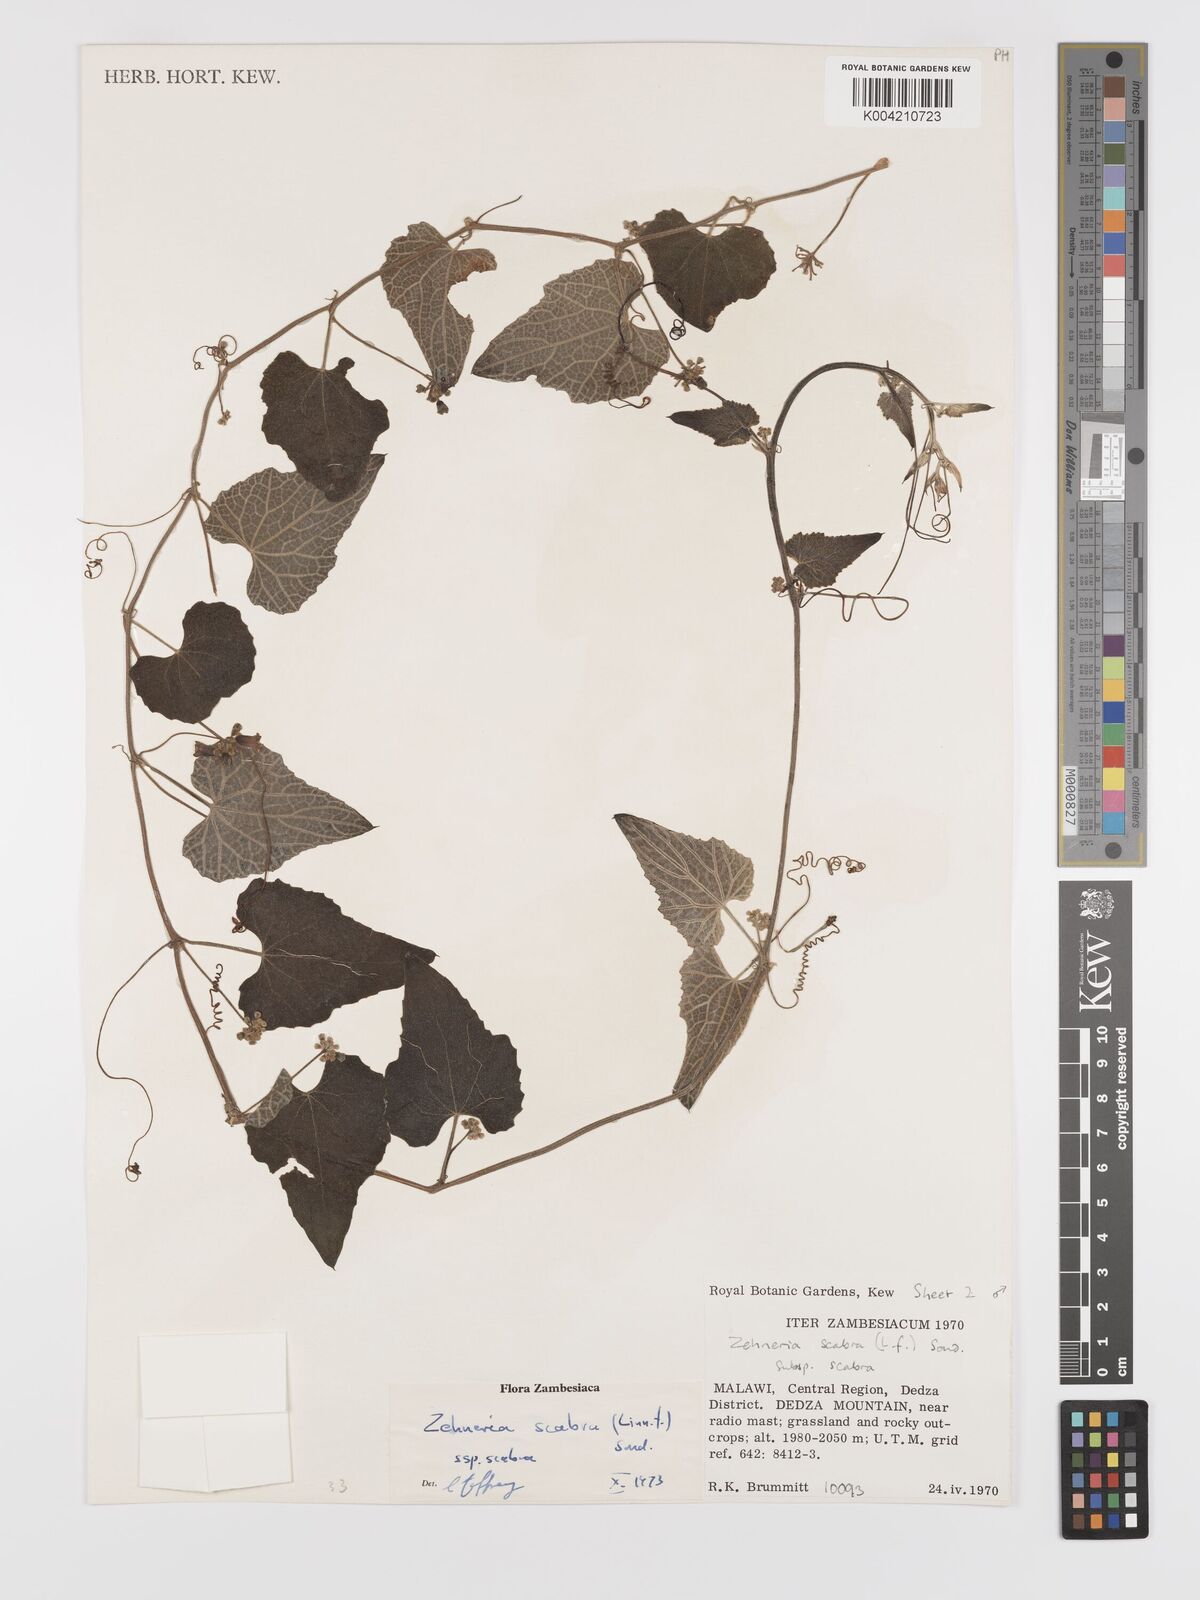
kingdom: Plantae
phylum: Tracheophyta
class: Magnoliopsida
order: Cucurbitales
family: Cucurbitaceae
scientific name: Cucurbitaceae
